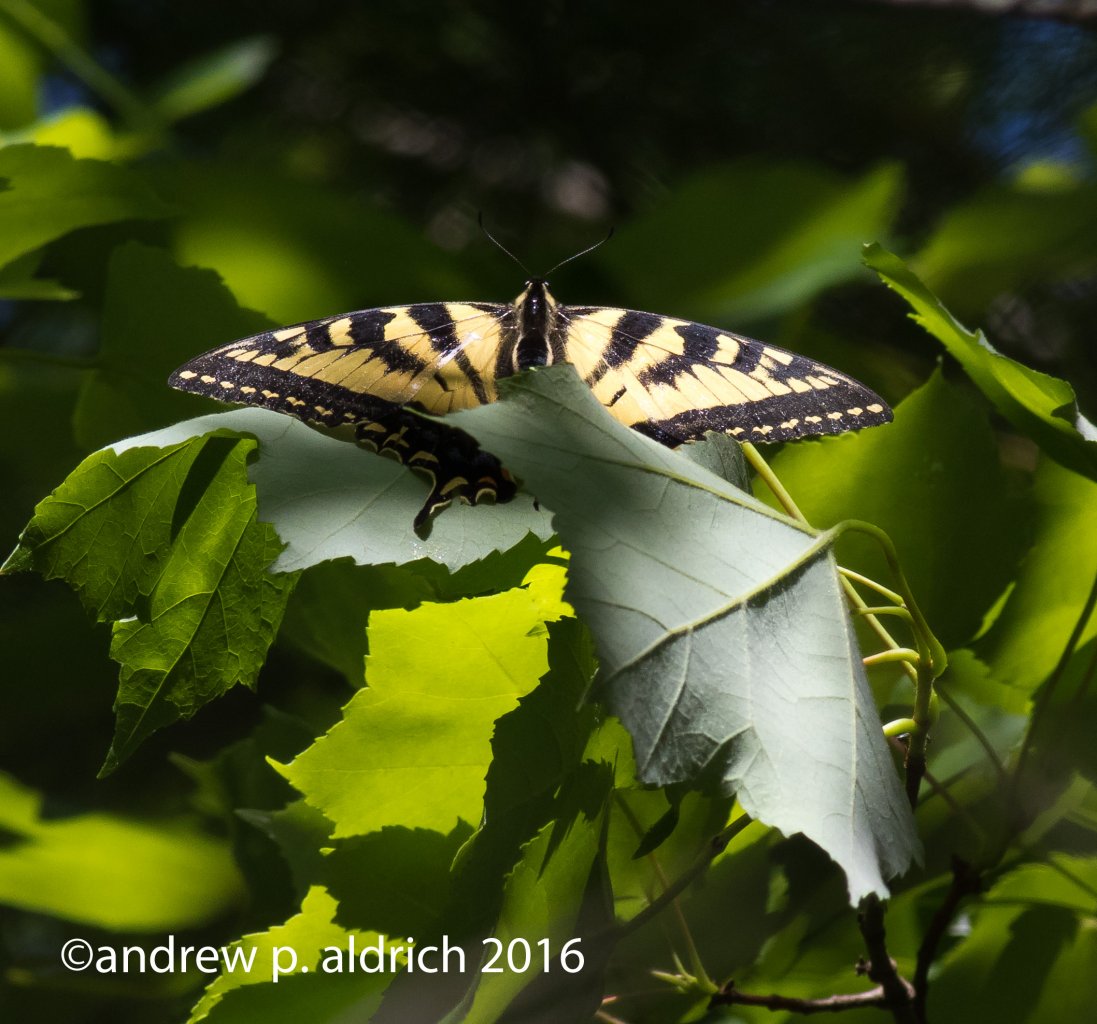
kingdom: Animalia
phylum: Arthropoda
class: Insecta
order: Lepidoptera
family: Papilionidae
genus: Pterourus
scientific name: Pterourus canadensis
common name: Canadian Tiger Swallowtail
